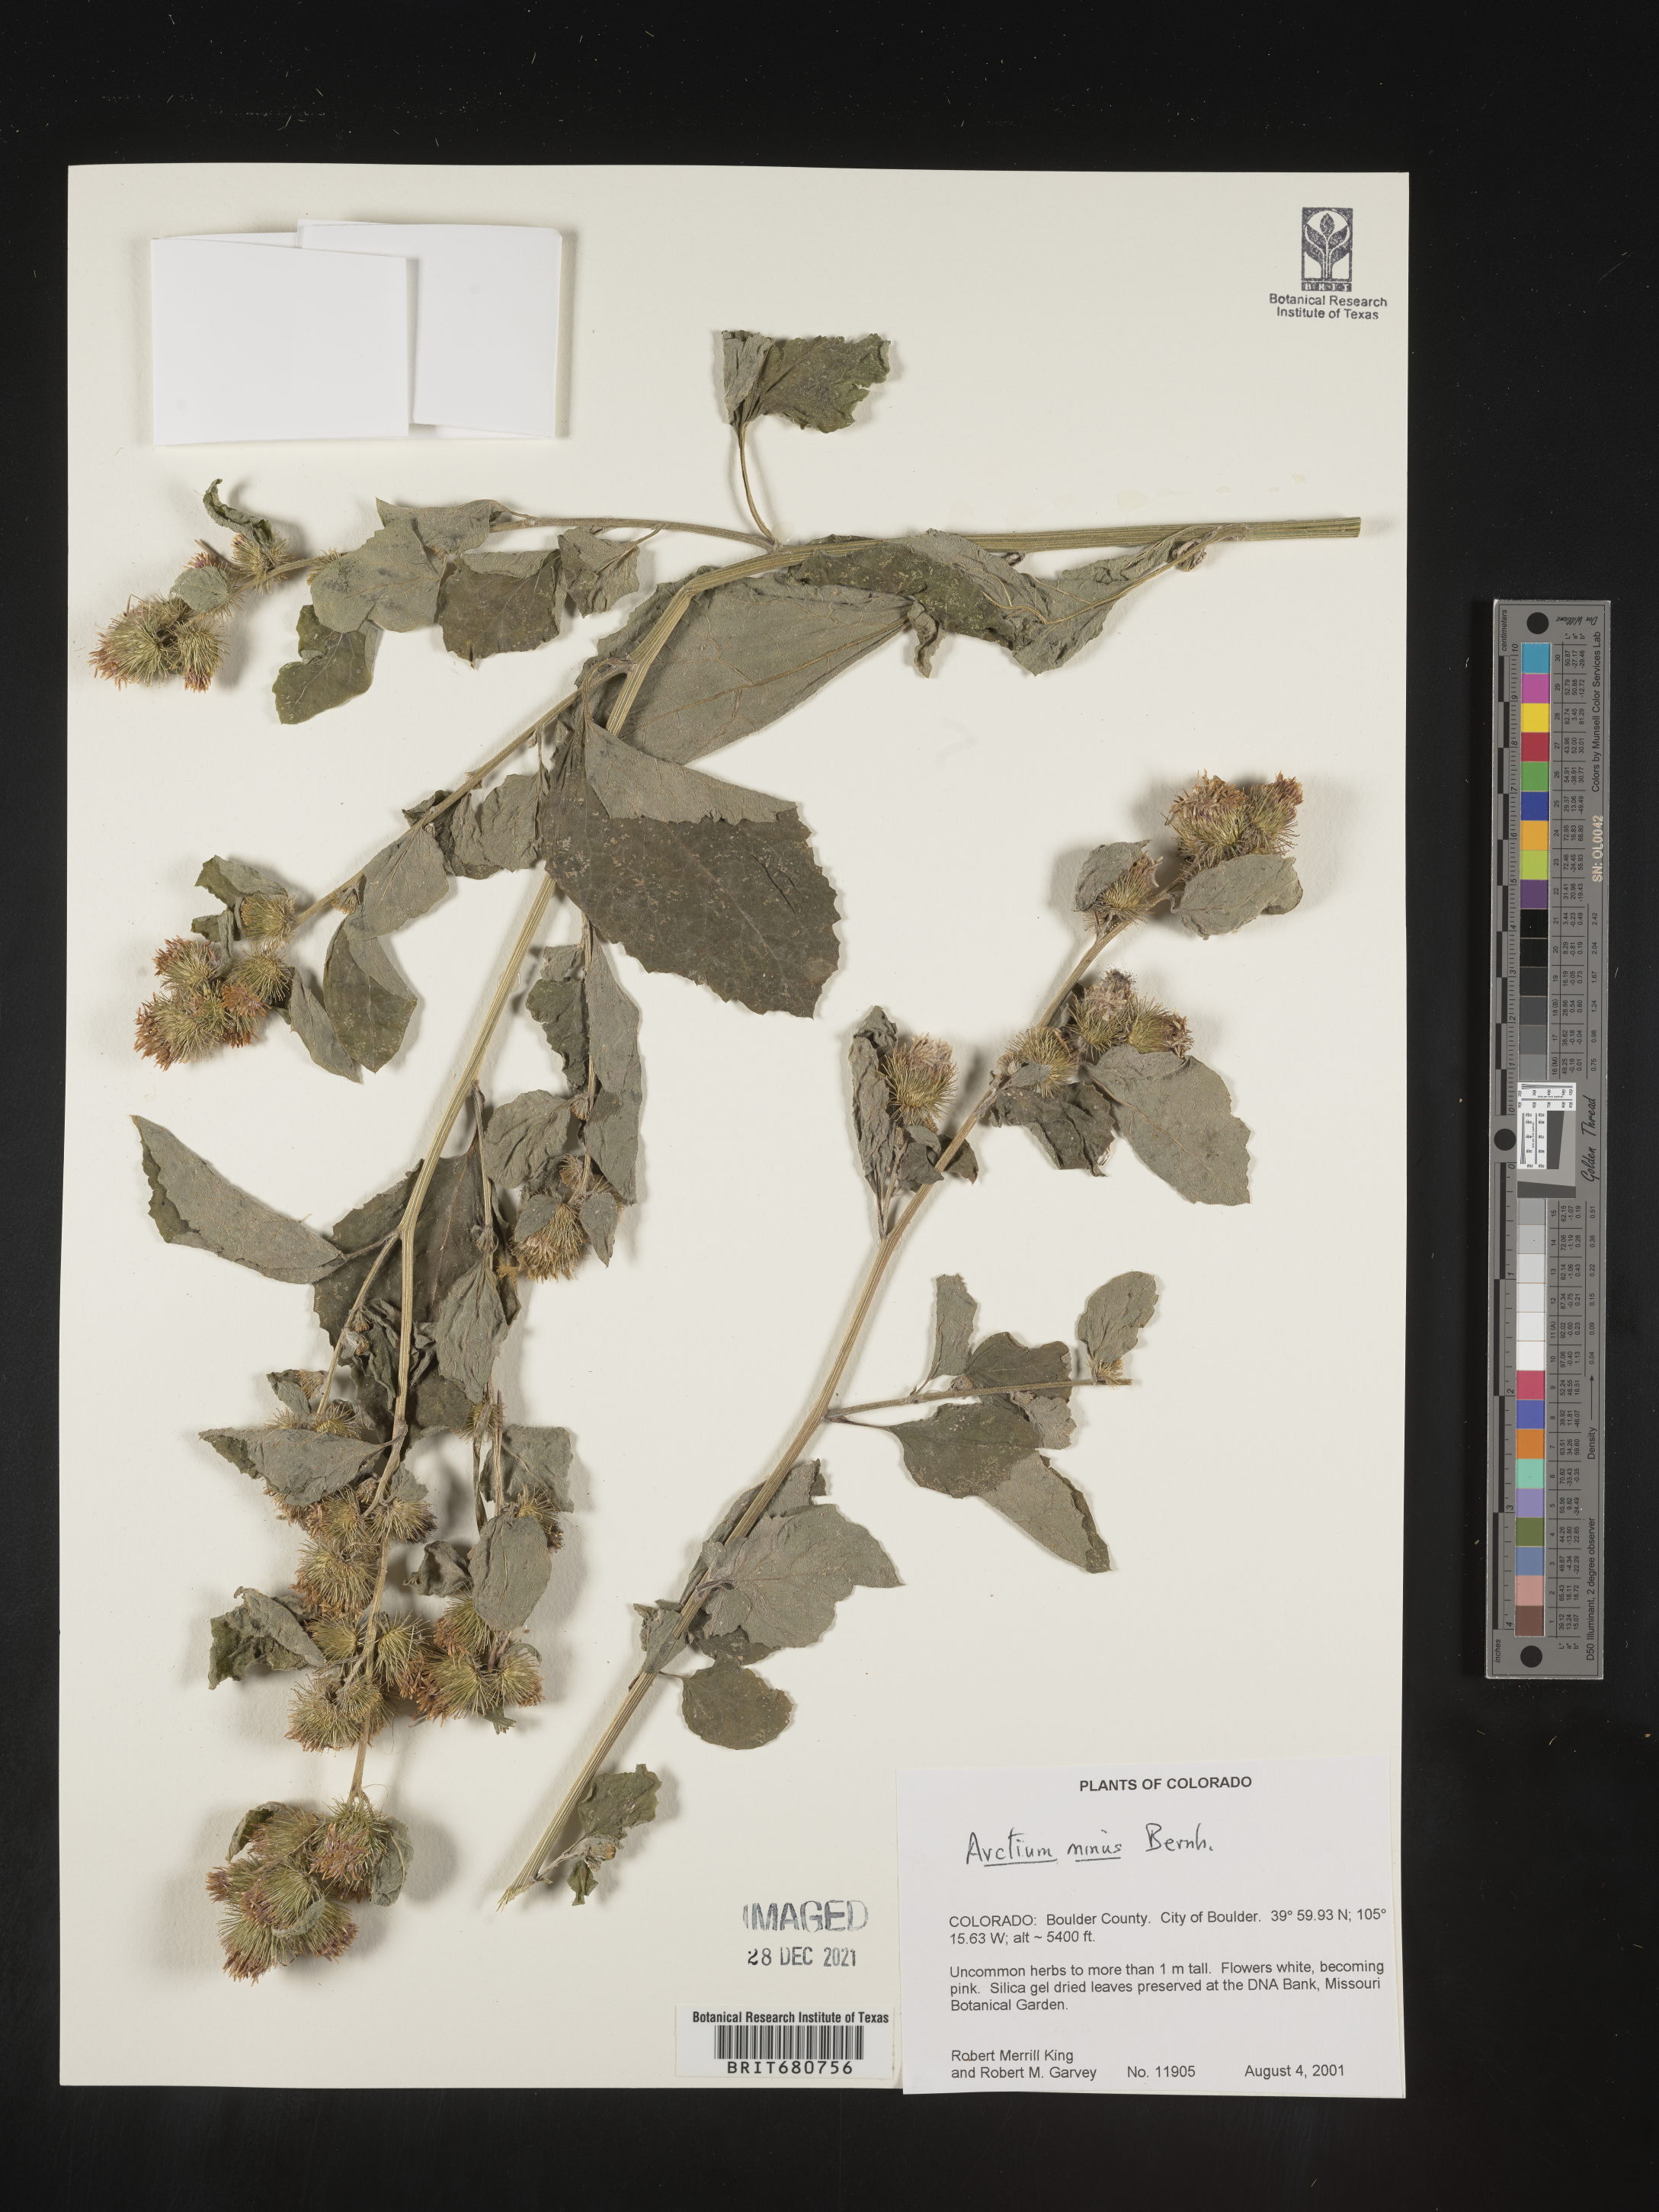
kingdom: Plantae
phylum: Tracheophyta
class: Magnoliopsida
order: Asterales
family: Asteraceae
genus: Arctium
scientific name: Arctium minus
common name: Lesser burdock
